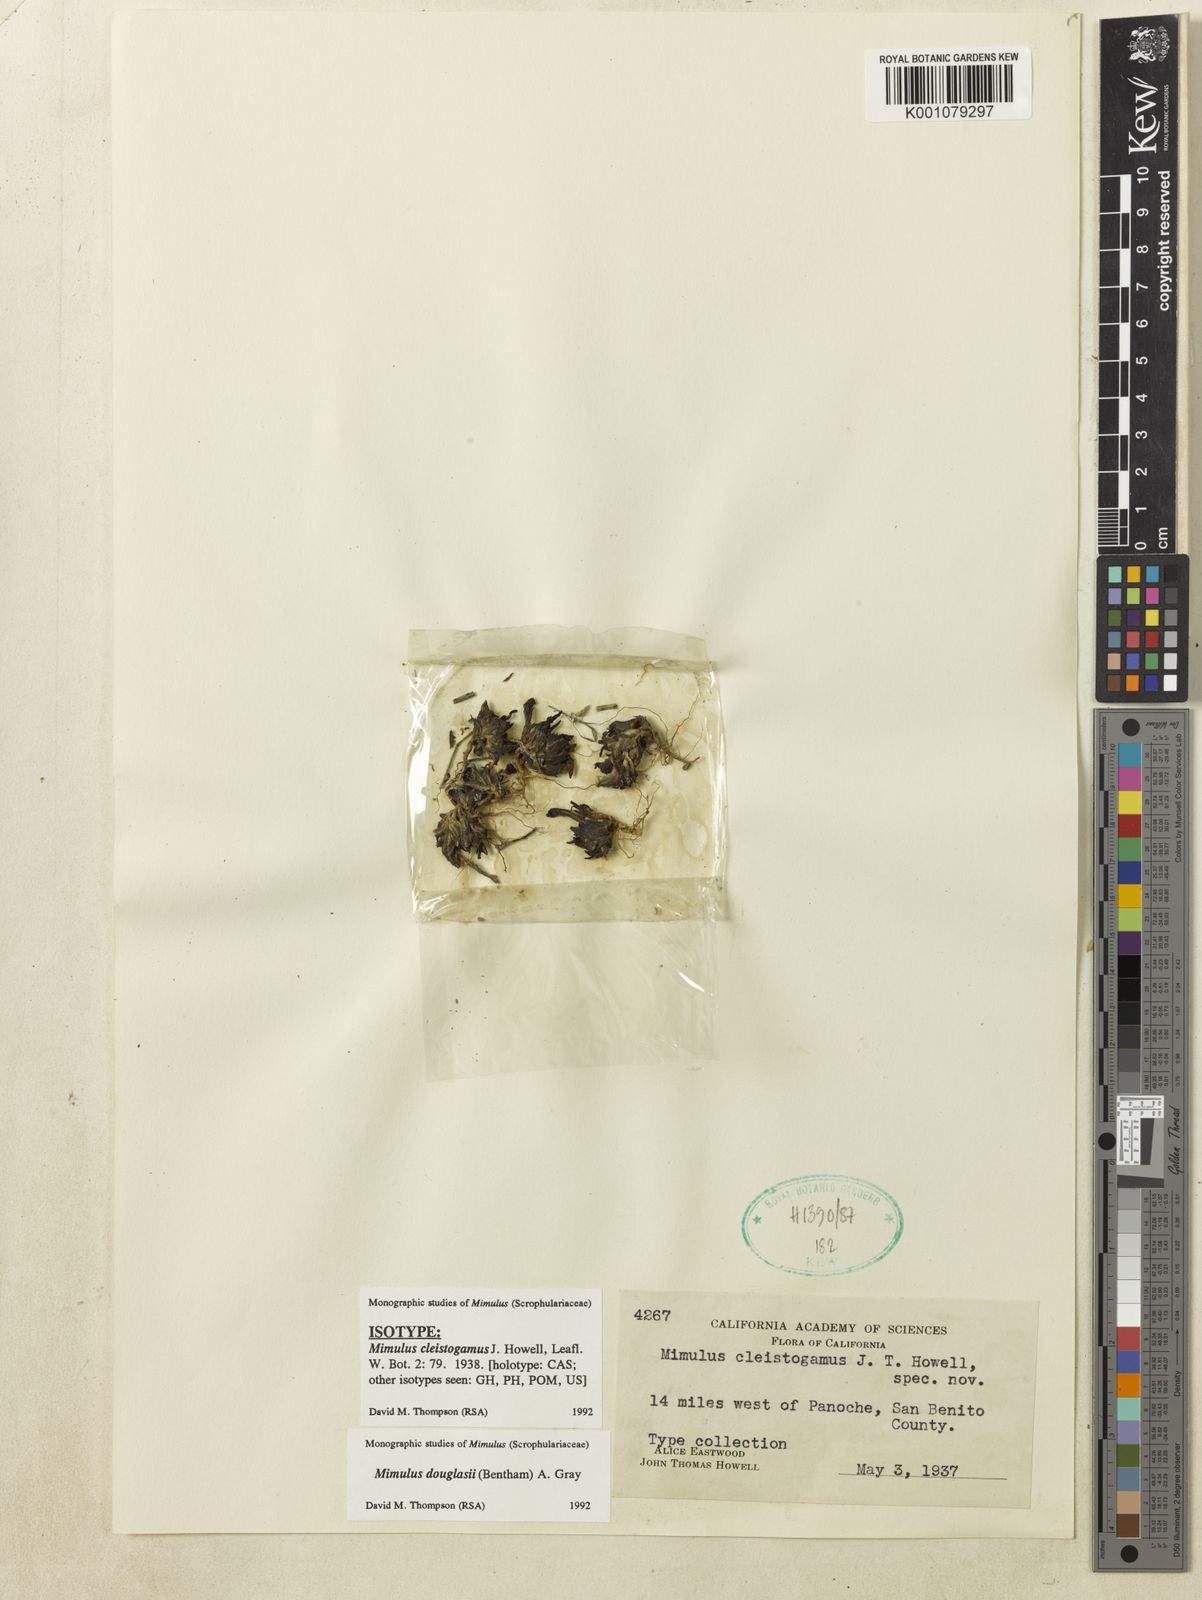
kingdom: Plantae
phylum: Tracheophyta
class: Magnoliopsida
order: Lamiales
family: Phrymaceae
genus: Diplacus
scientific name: Diplacus douglasii
